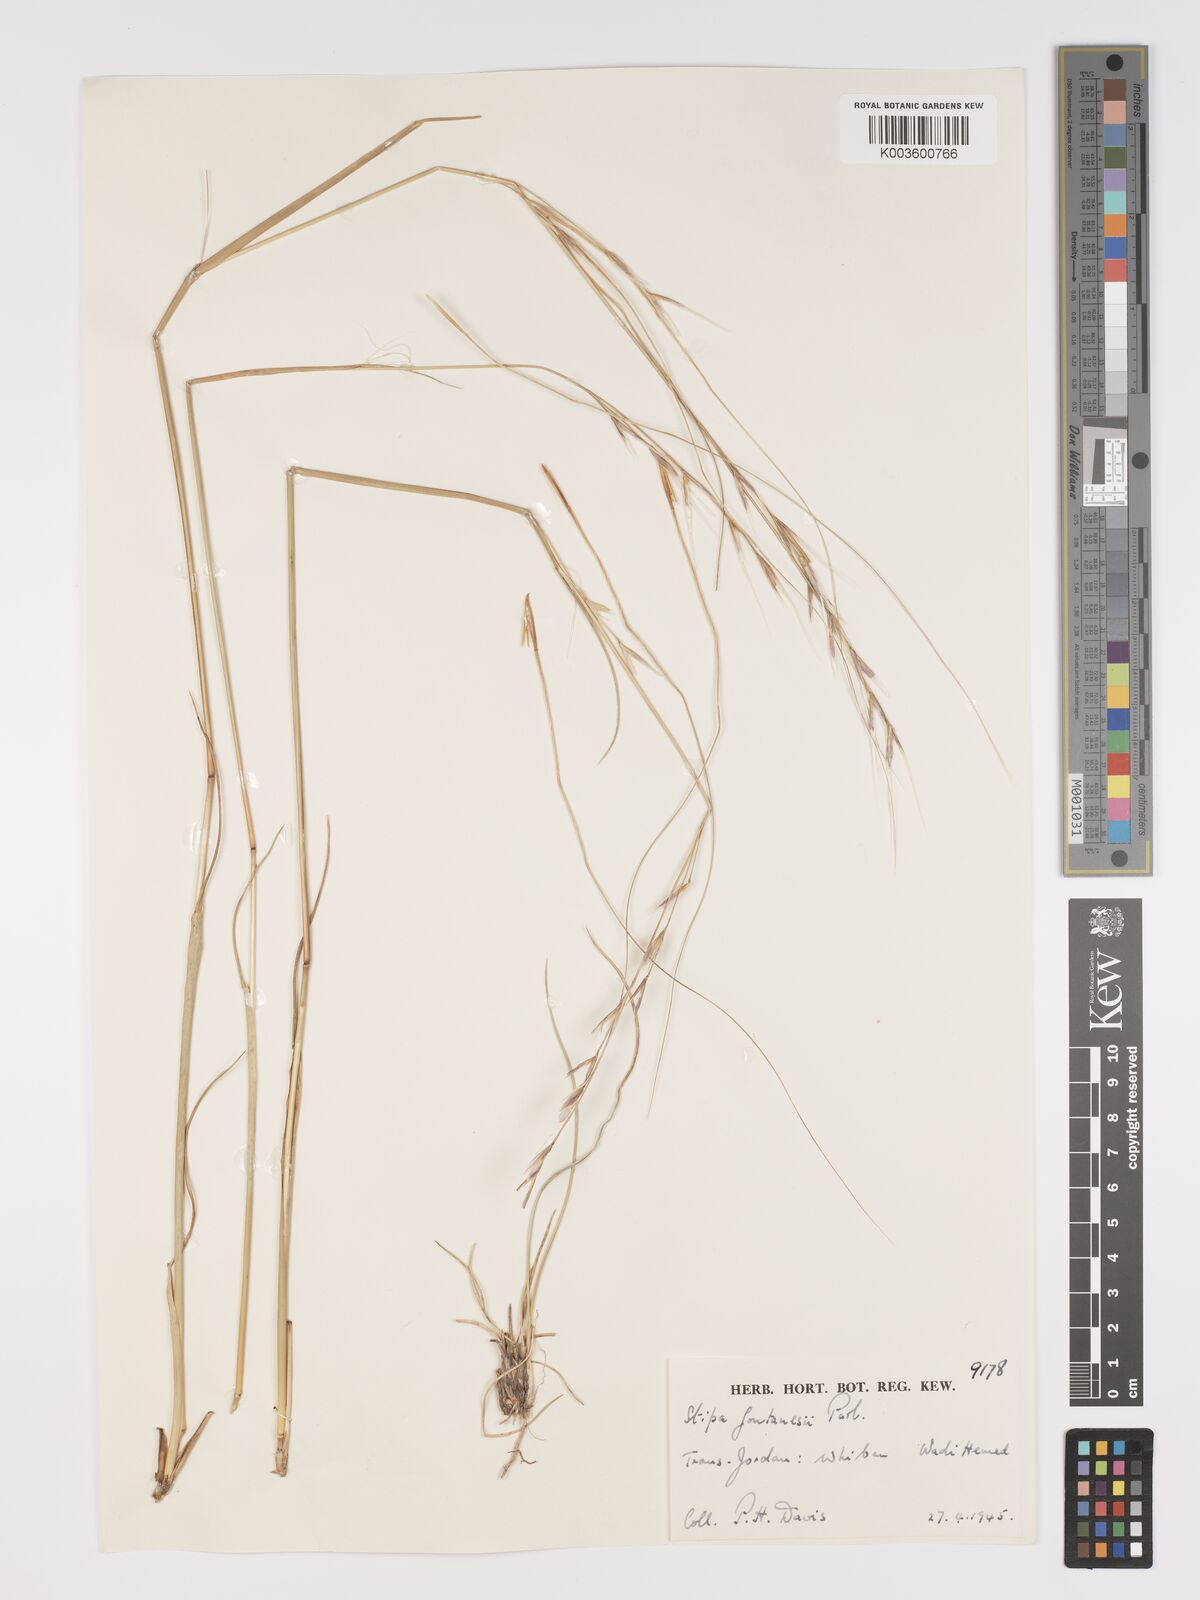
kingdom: Plantae
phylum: Tracheophyta
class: Liliopsida
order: Poales
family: Poaceae
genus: Stipa
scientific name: Stipa lagascae
